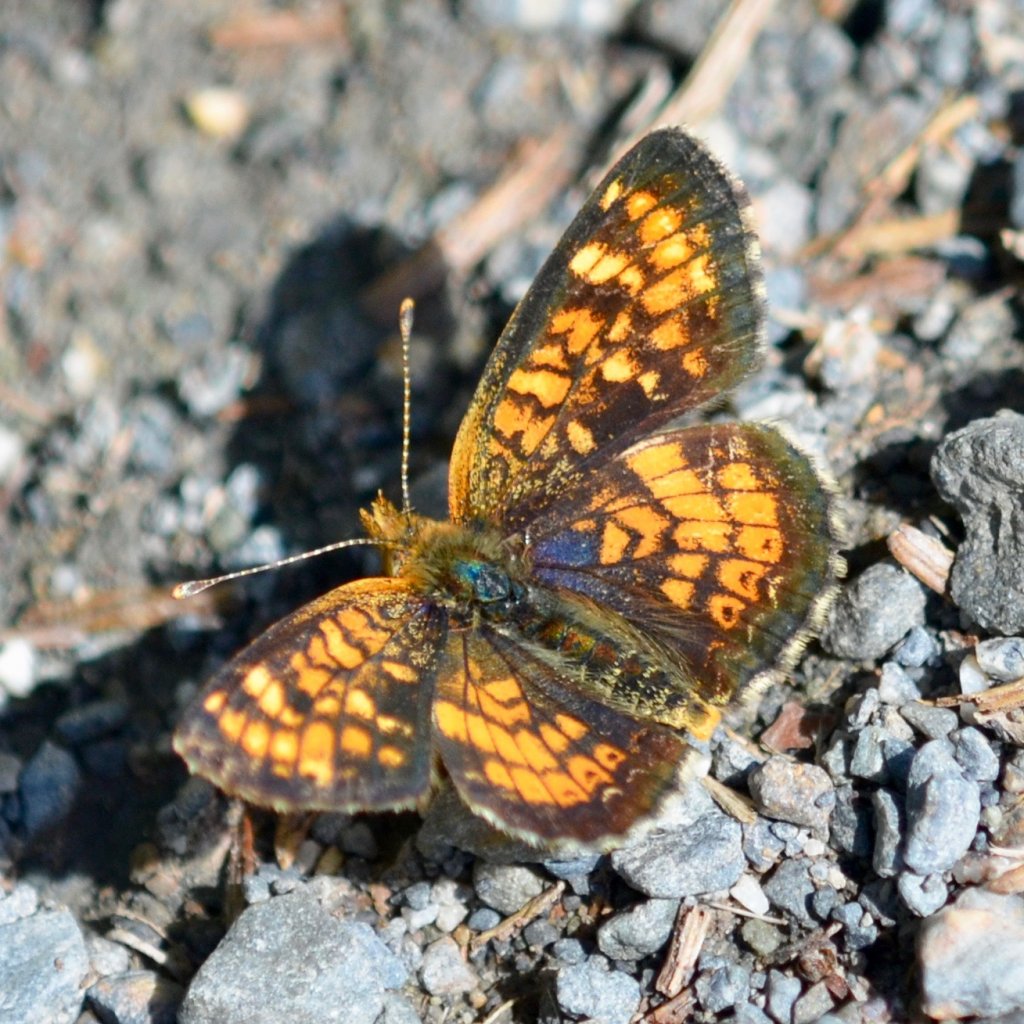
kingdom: Animalia
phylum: Arthropoda
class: Insecta
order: Lepidoptera
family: Nymphalidae
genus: Phyciodes
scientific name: Phyciodes tharos
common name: Field Crescent
